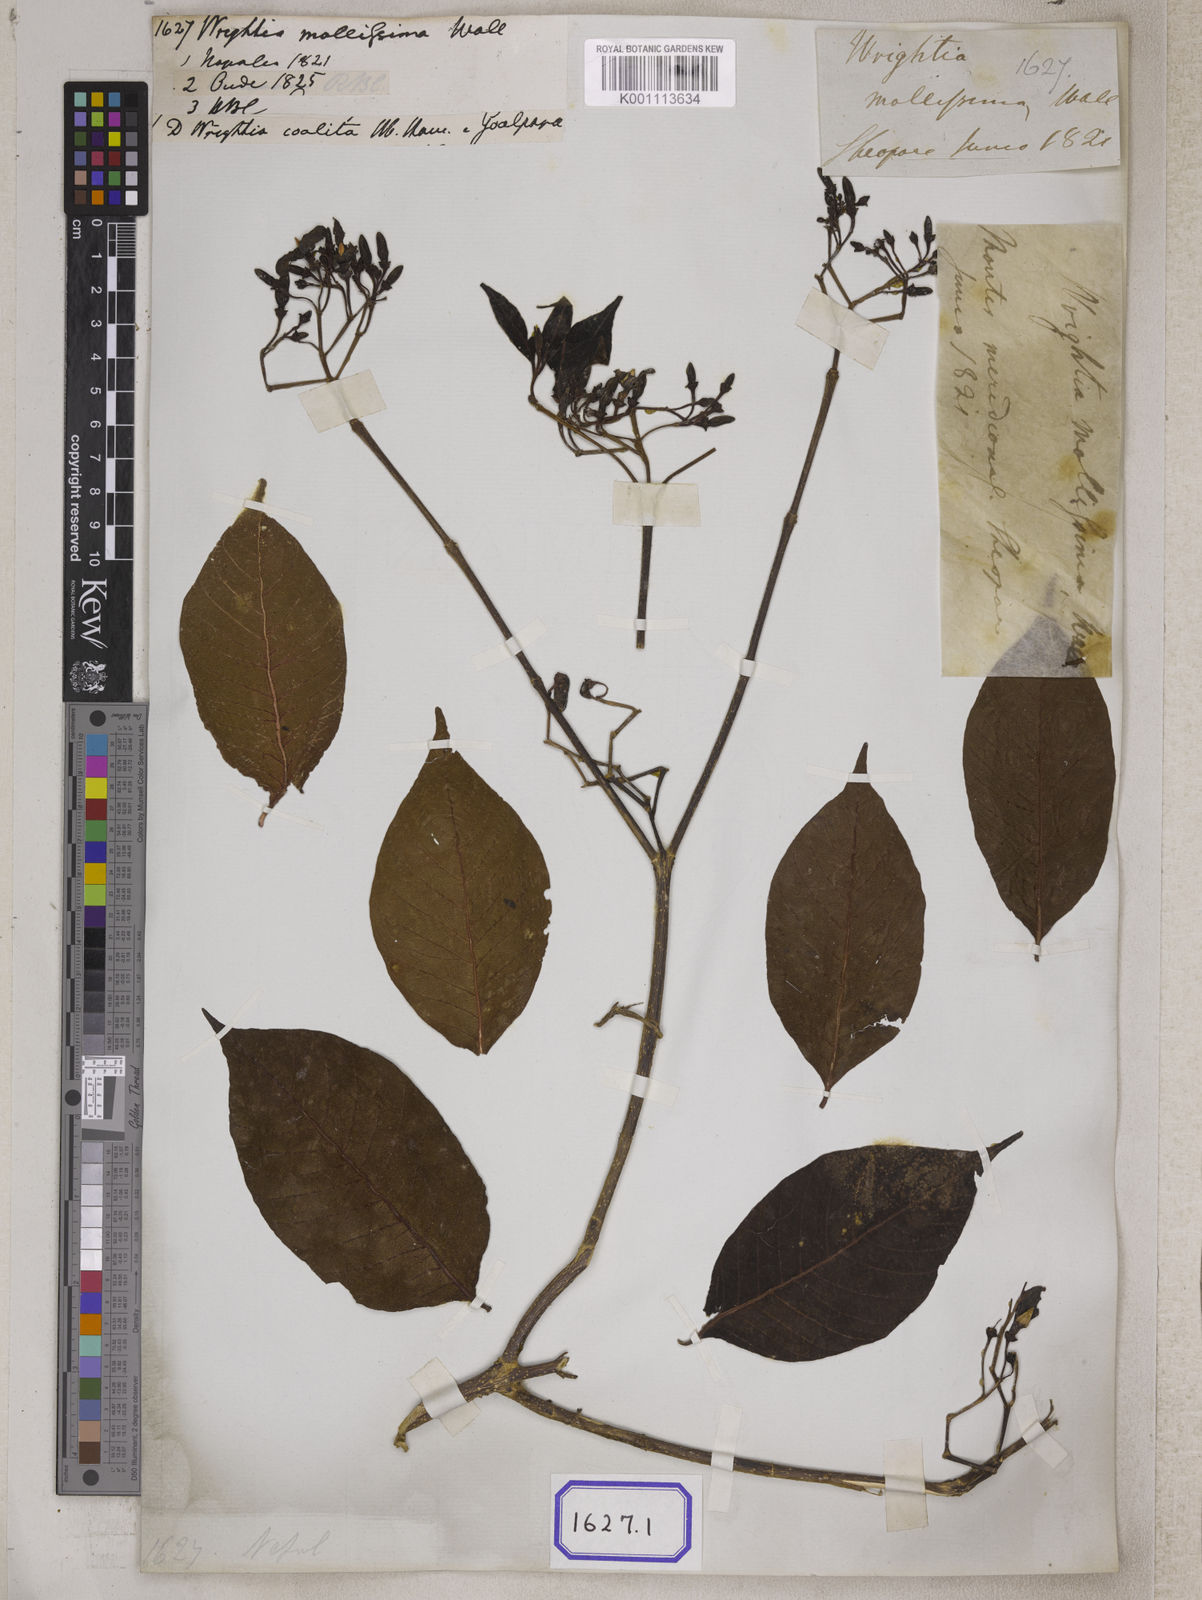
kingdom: Plantae
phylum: Tracheophyta
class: Magnoliopsida
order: Gentianales
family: Apocynaceae
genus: Wrightia
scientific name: Wrightia arborea
